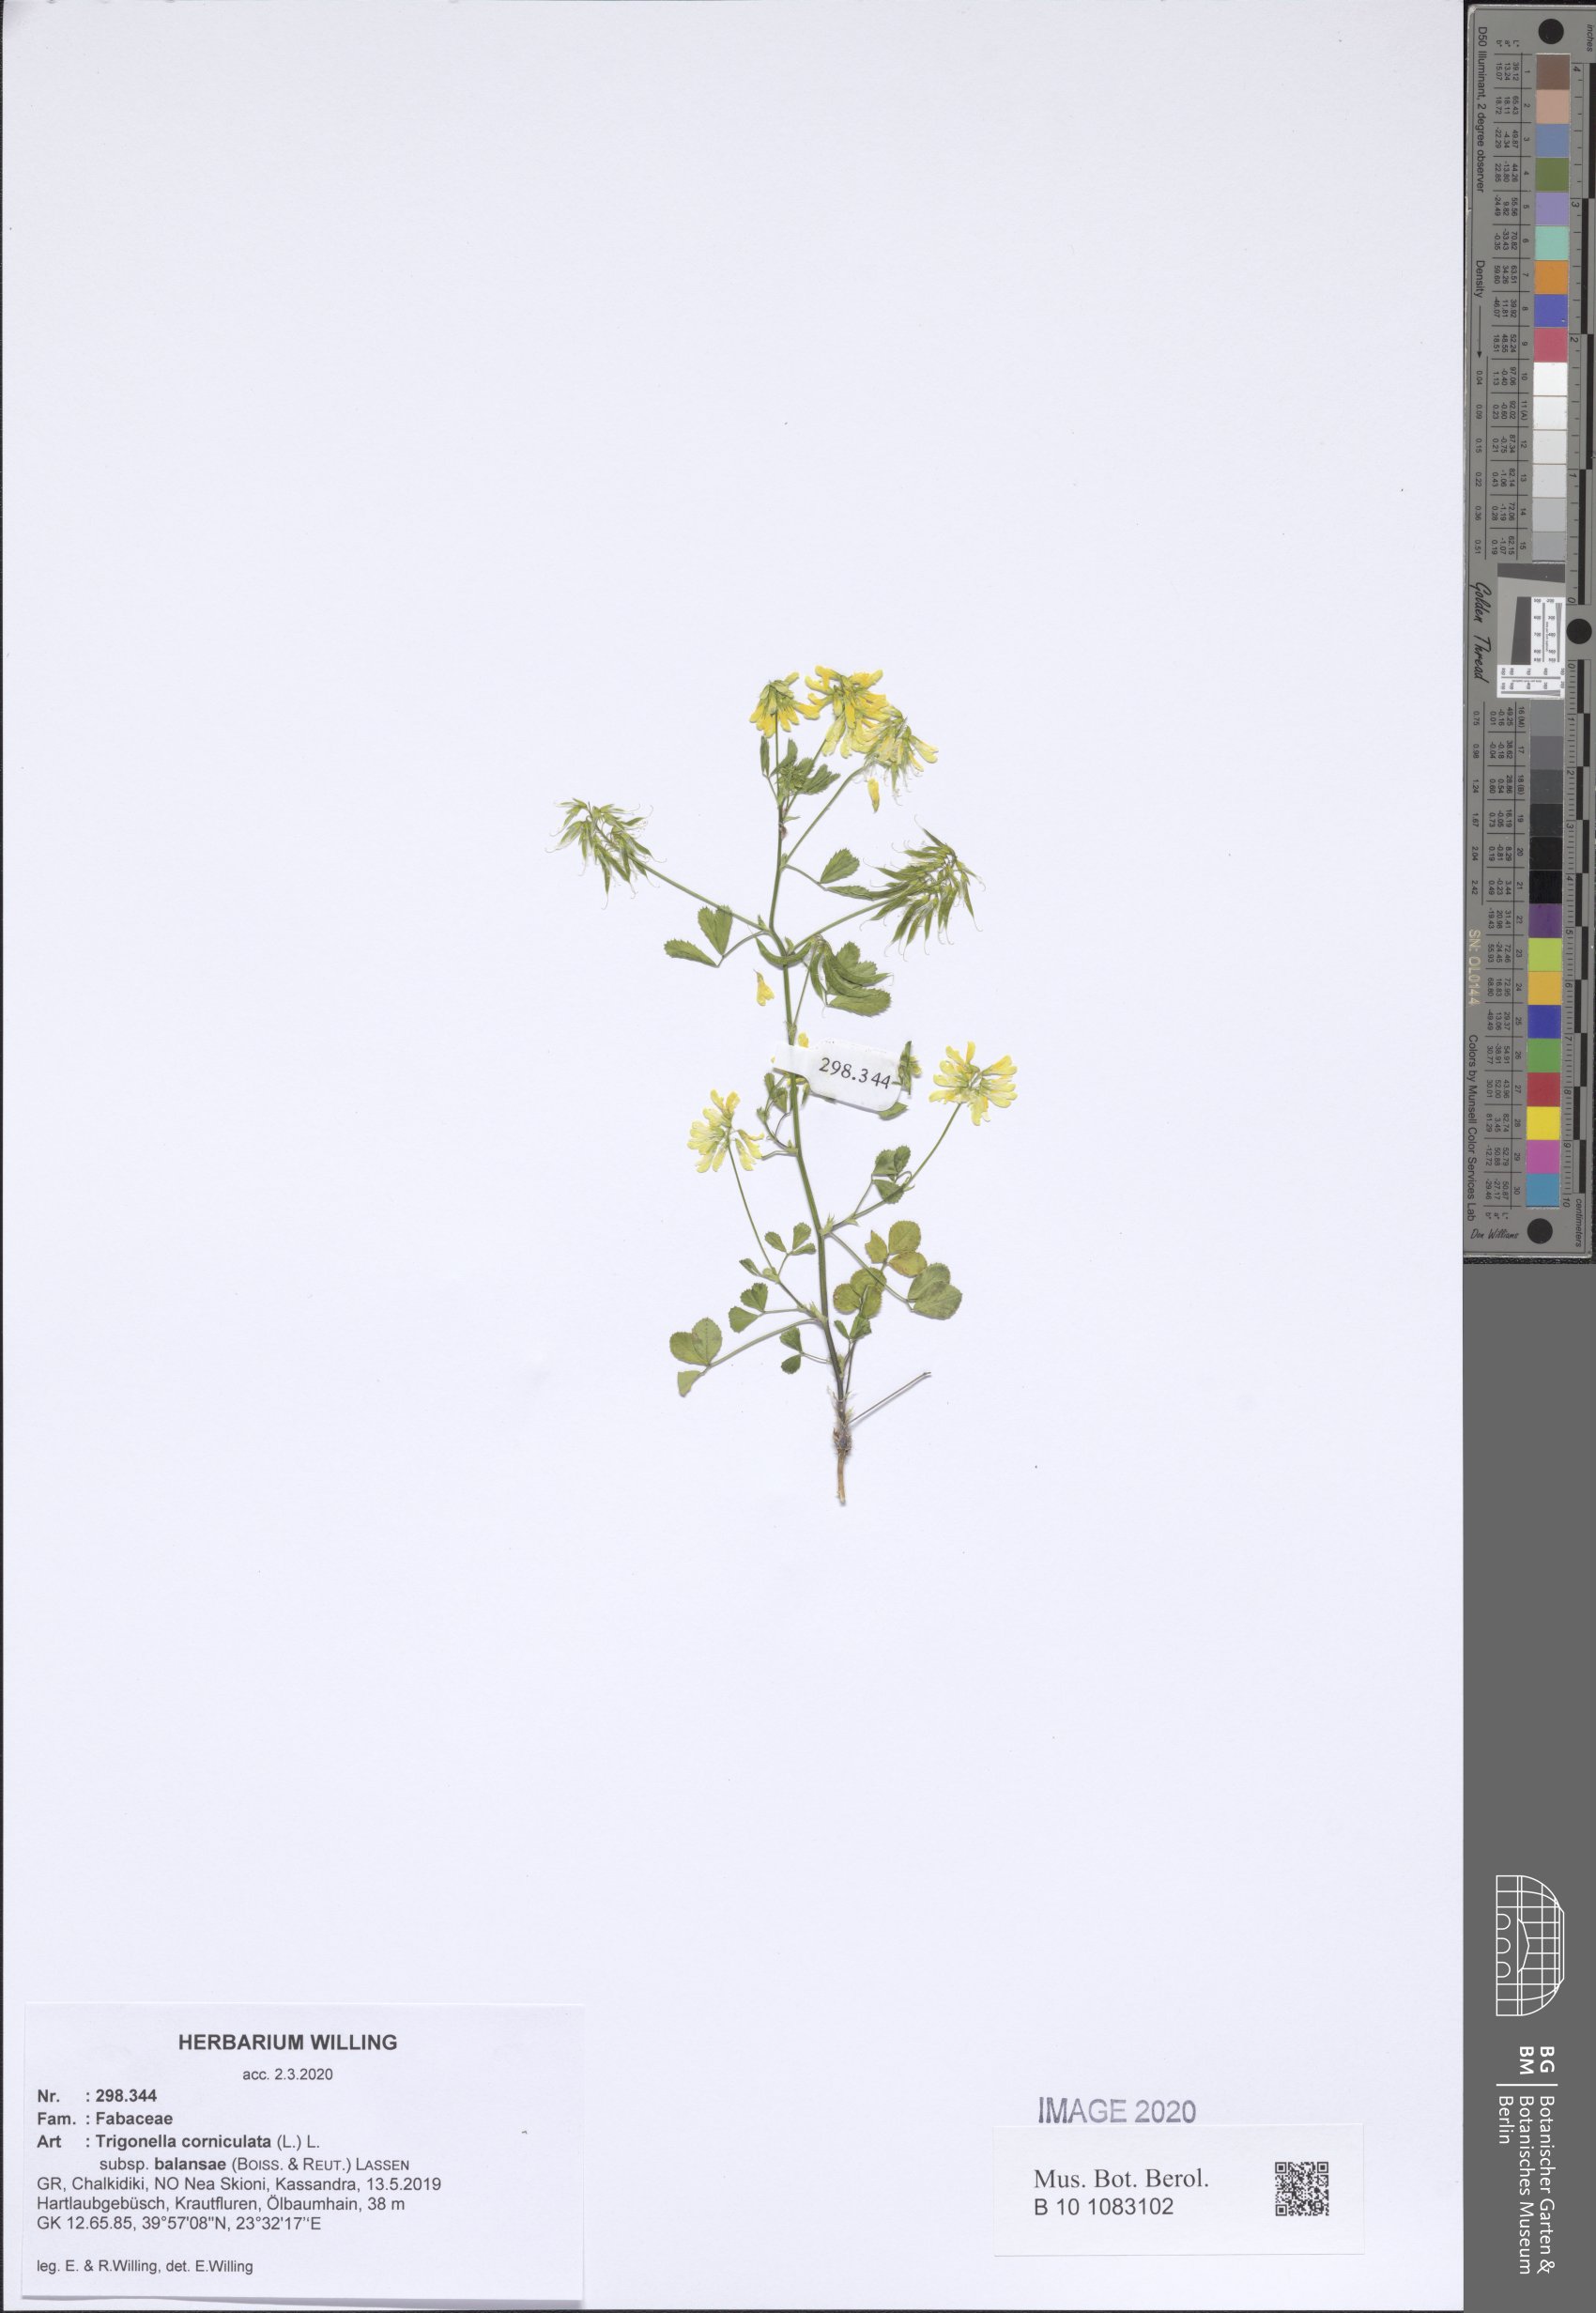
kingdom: Plantae
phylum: Tracheophyta
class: Magnoliopsida
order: Fabales
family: Fabaceae
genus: Trigonella
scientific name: Trigonella balansae
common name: Sickle-fruited fenugreek
